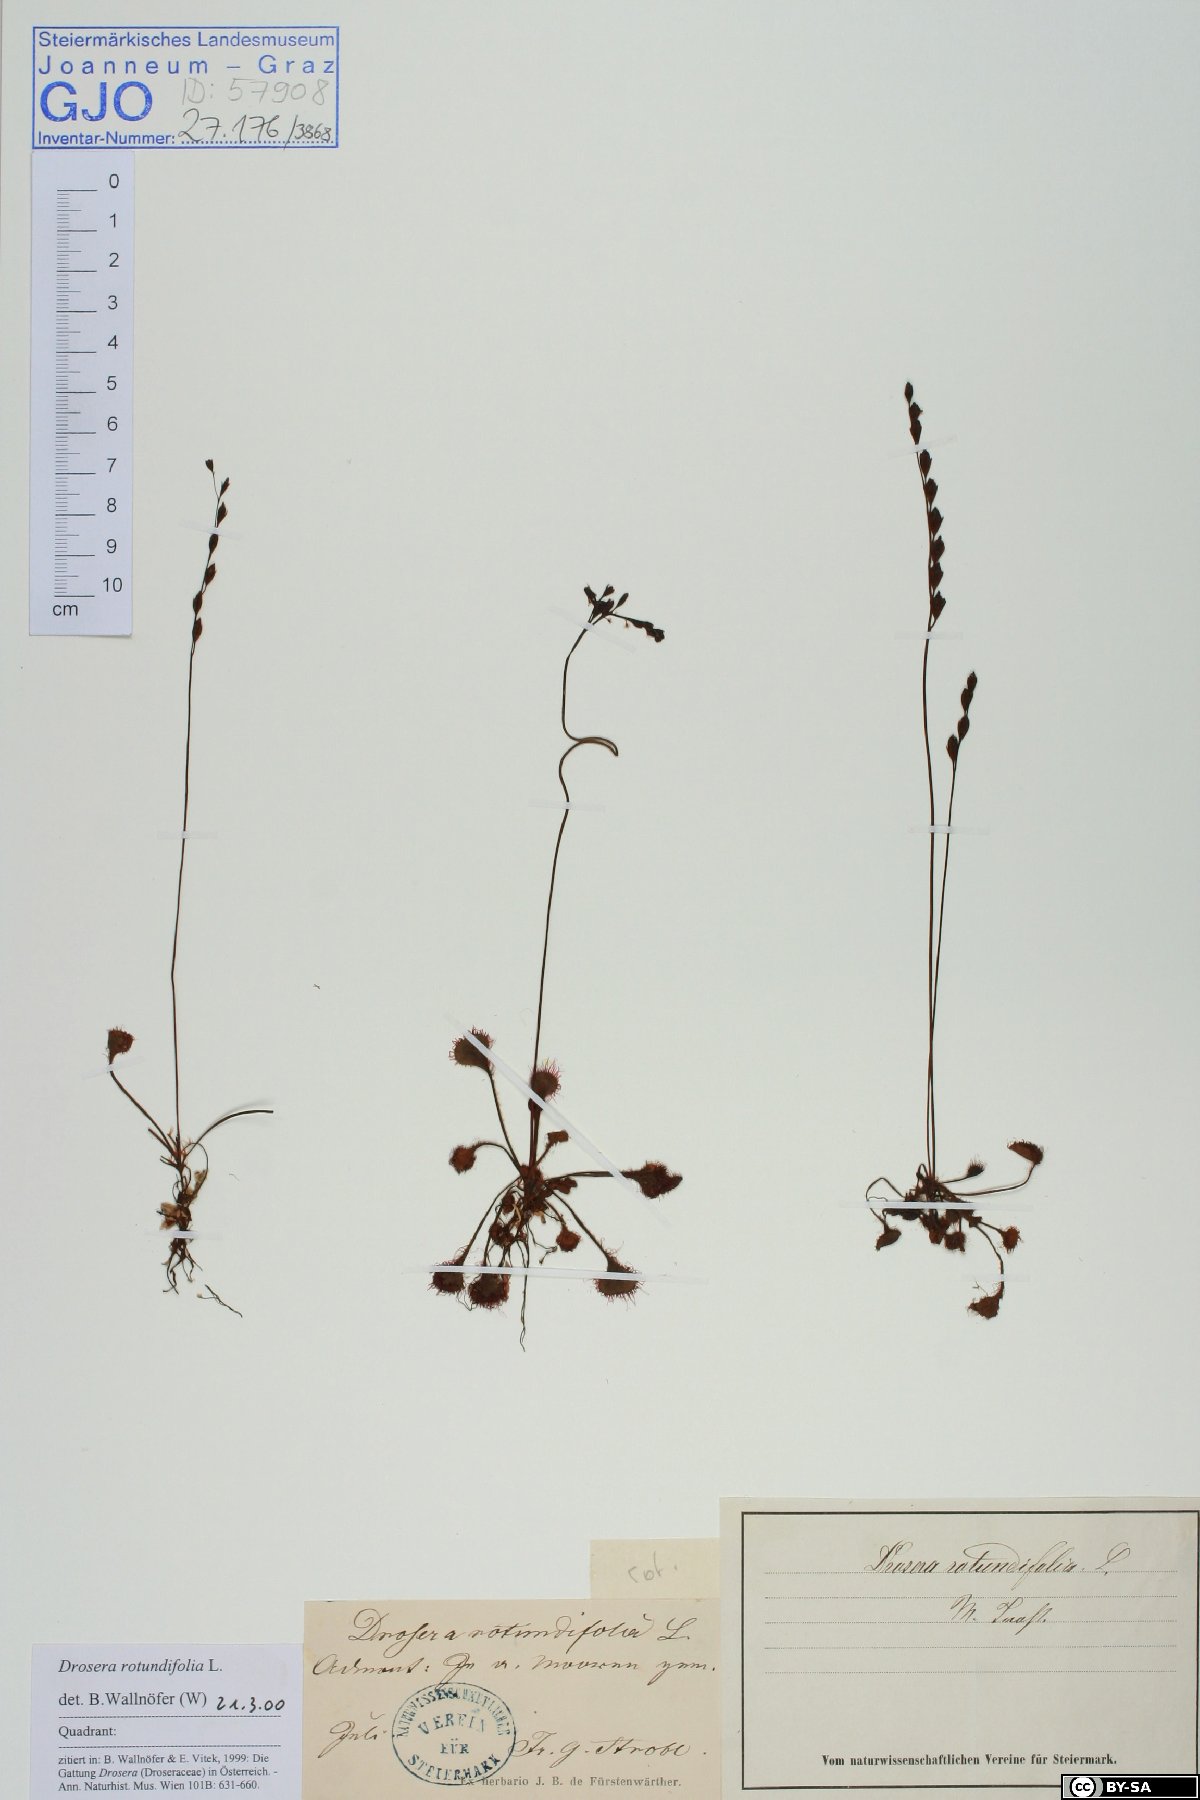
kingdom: Plantae
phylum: Tracheophyta
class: Magnoliopsida
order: Caryophyllales
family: Droseraceae
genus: Drosera
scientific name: Drosera rotundifolia
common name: Round-leaved sundew
